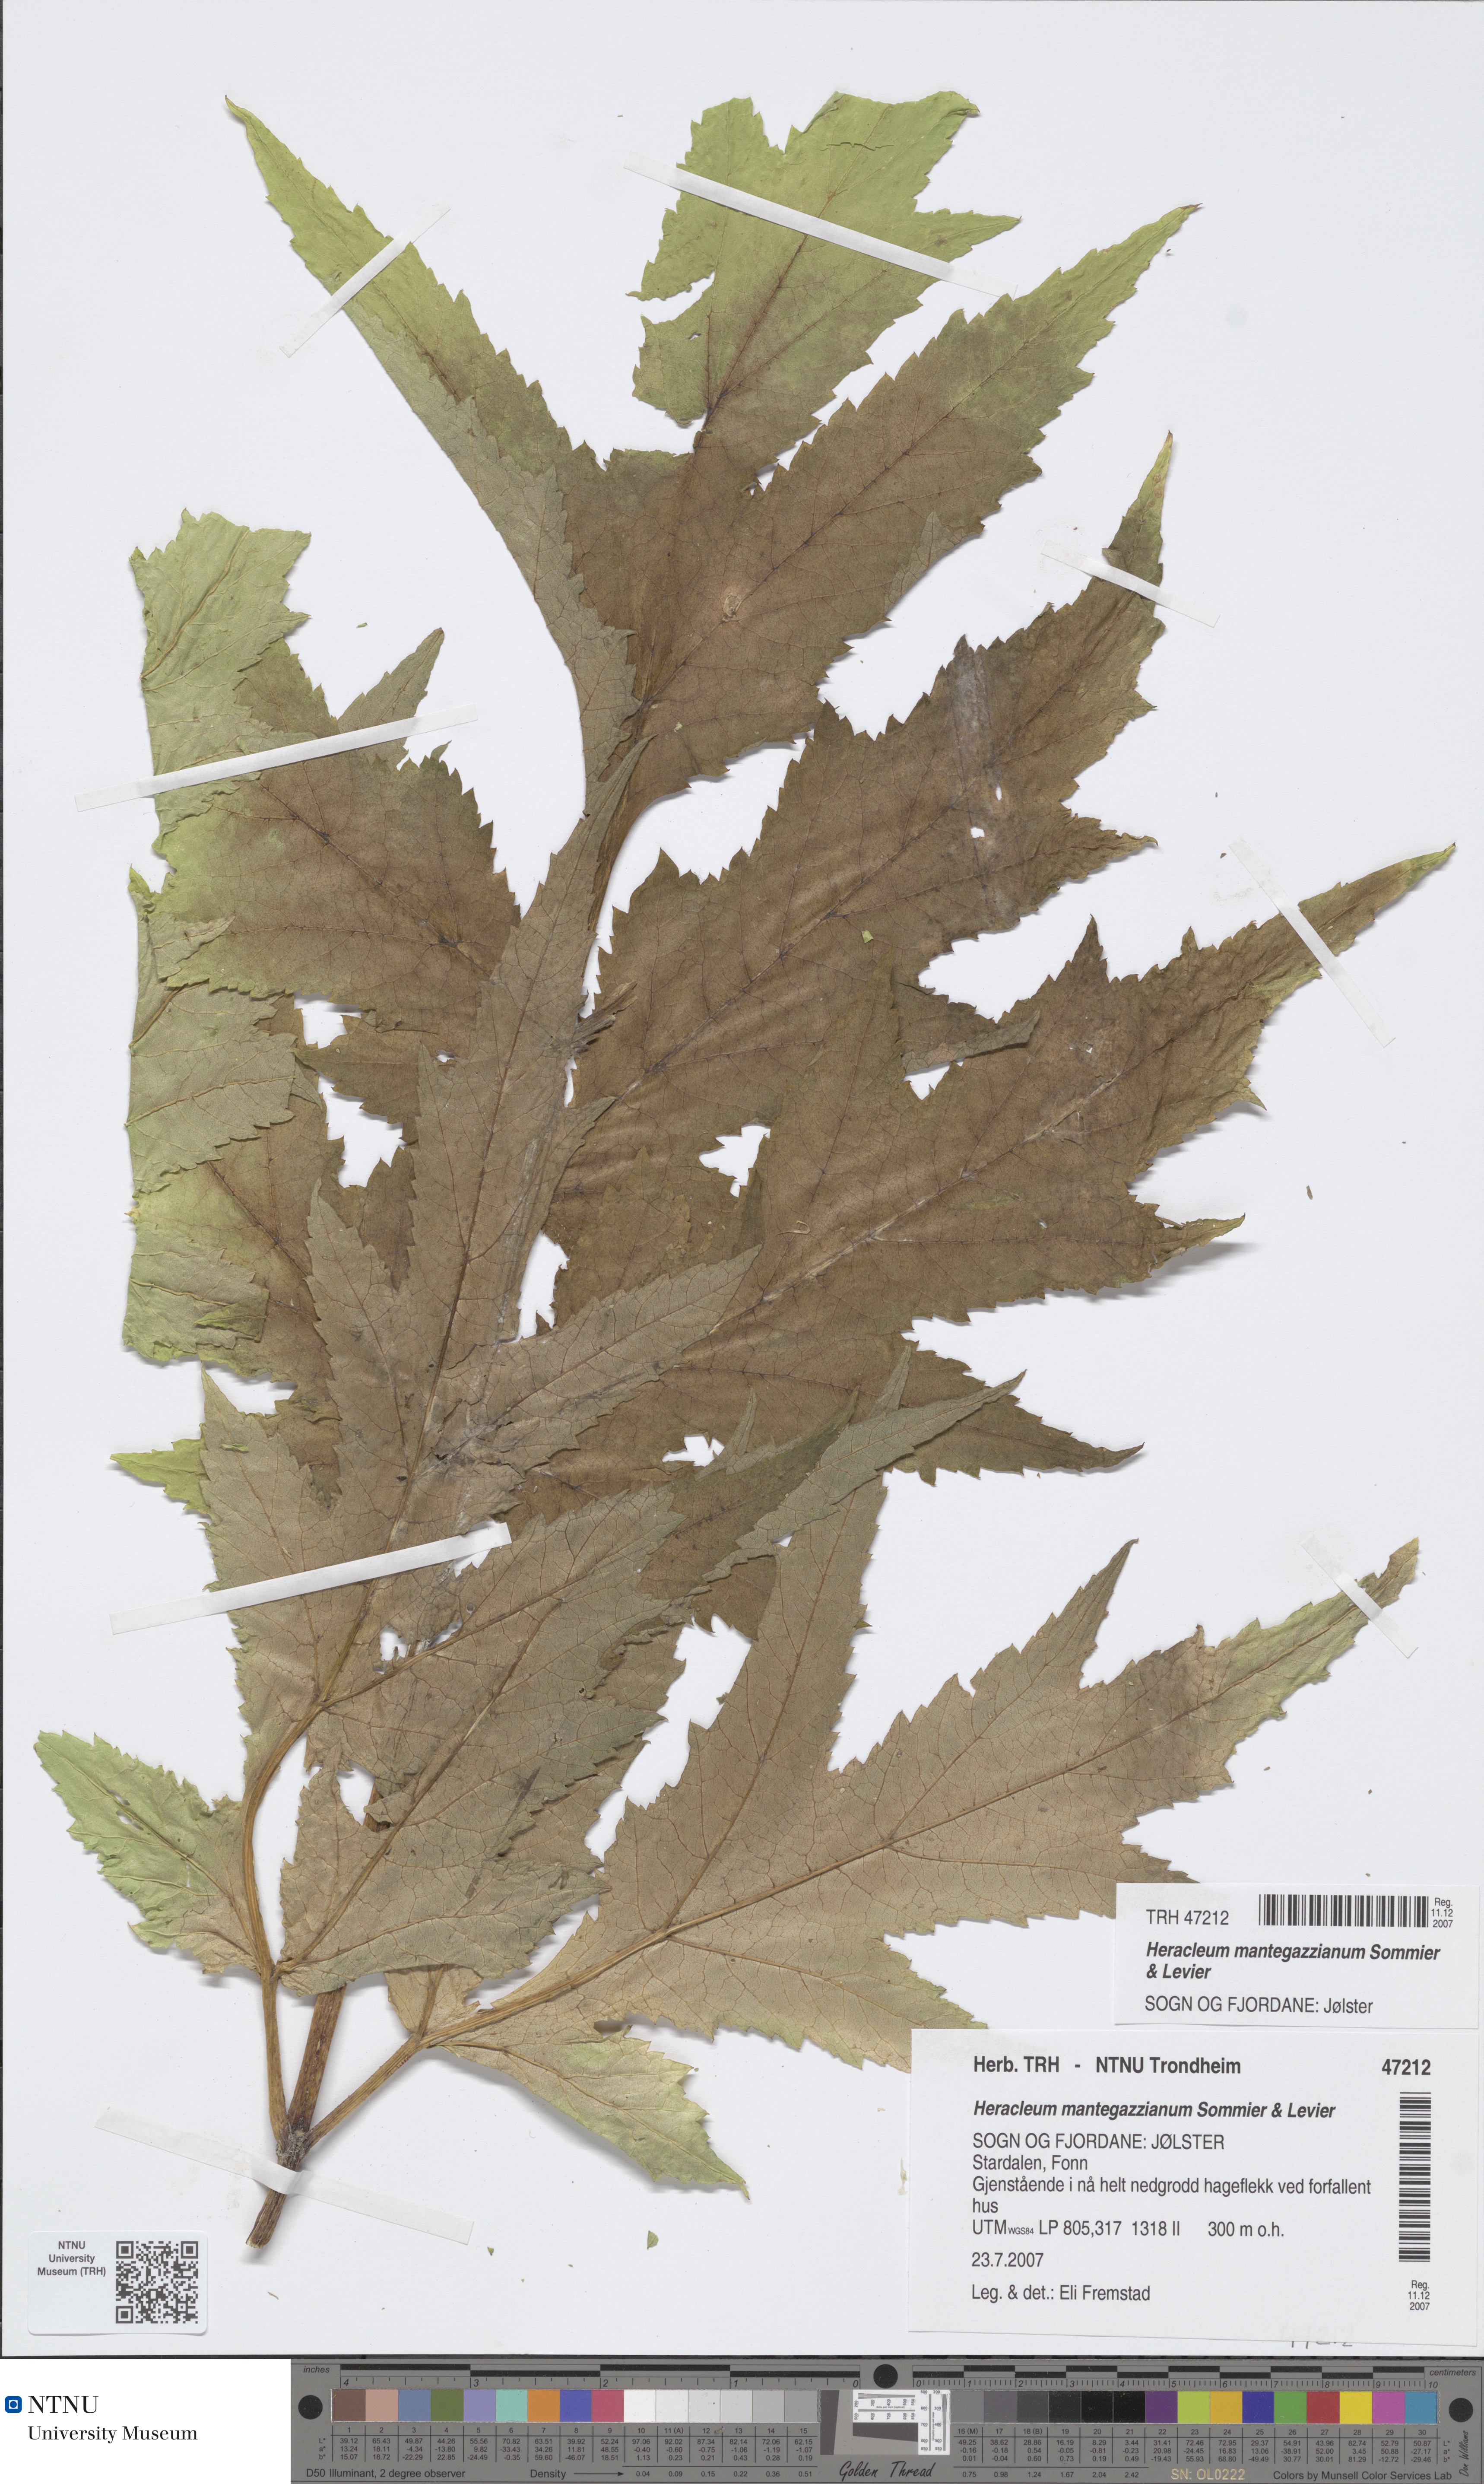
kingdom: Plantae
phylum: Tracheophyta
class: Magnoliopsida
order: Apiales
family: Apiaceae
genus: Heracleum
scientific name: Heracleum mantegazzianum
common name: Giant hogweed
